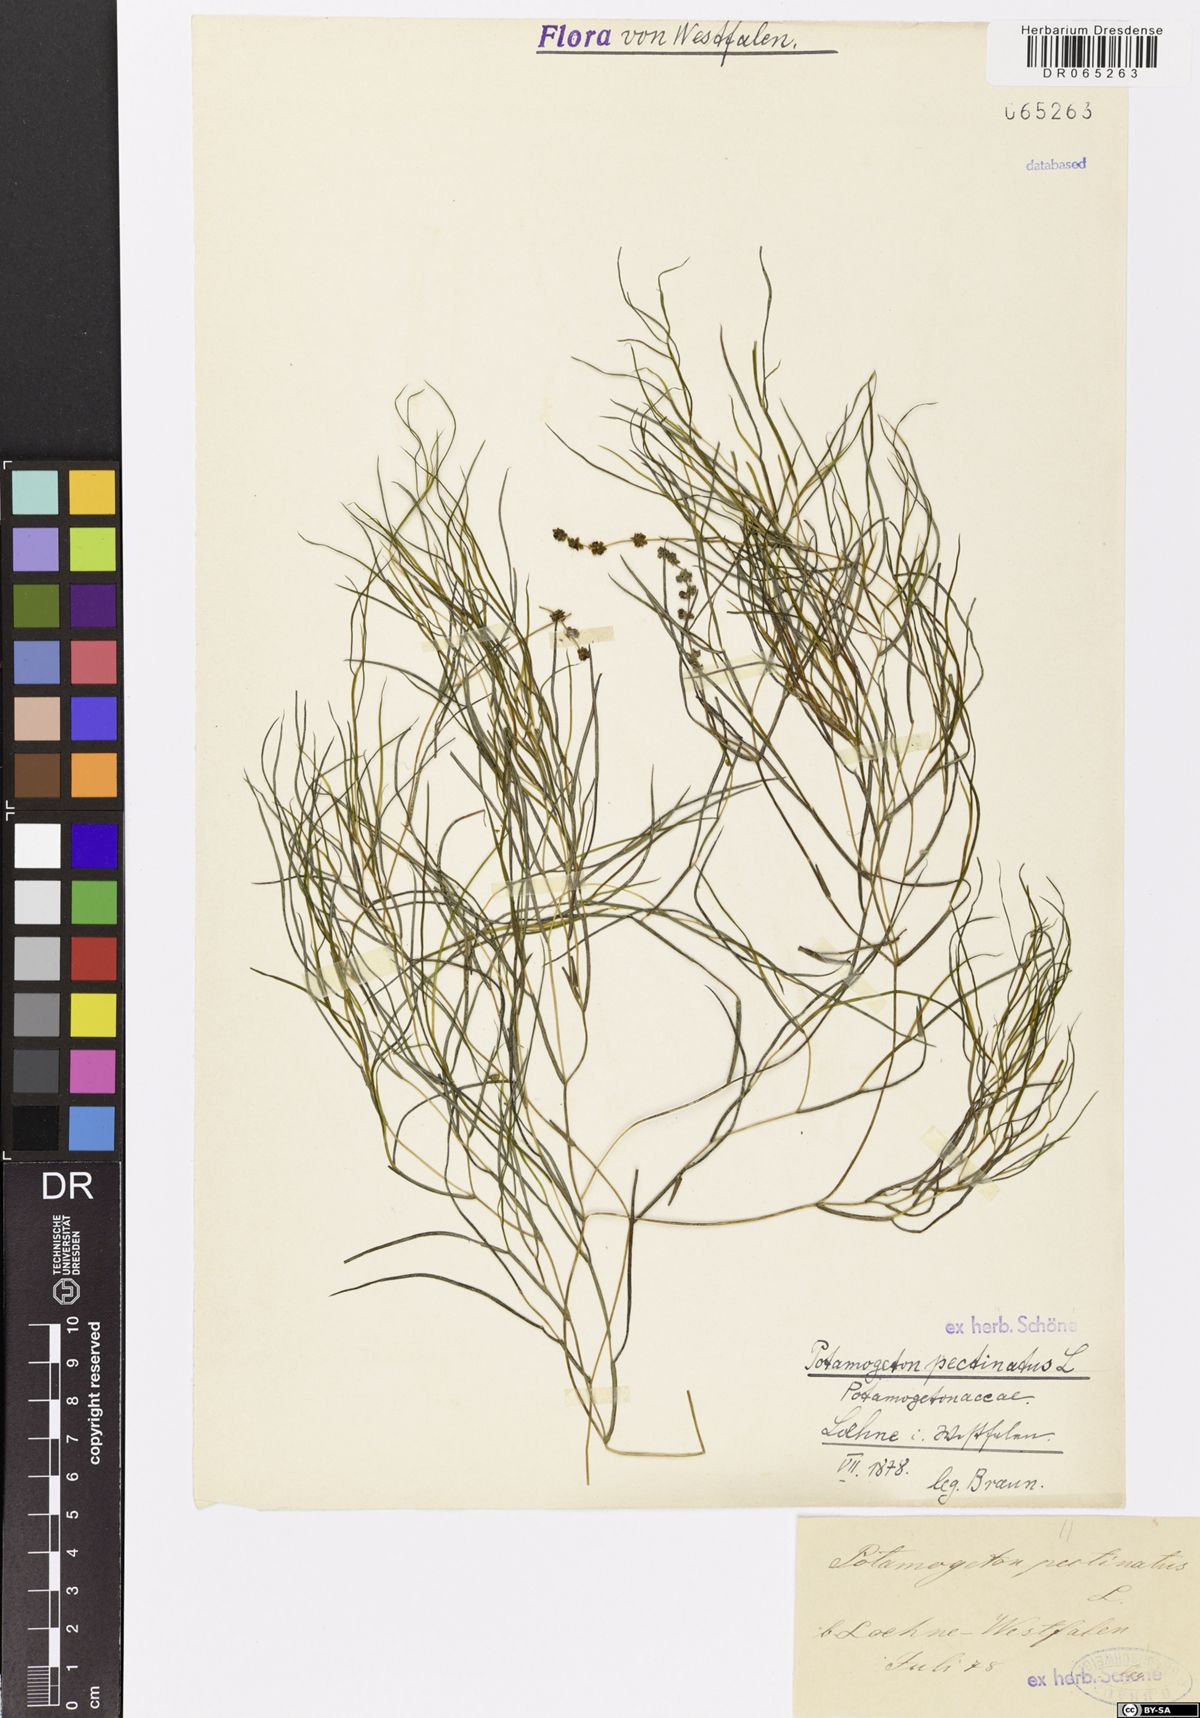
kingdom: Plantae
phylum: Tracheophyta
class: Liliopsida
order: Alismatales
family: Potamogetonaceae
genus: Stuckenia
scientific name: Stuckenia pectinata
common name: Sago pondweed
